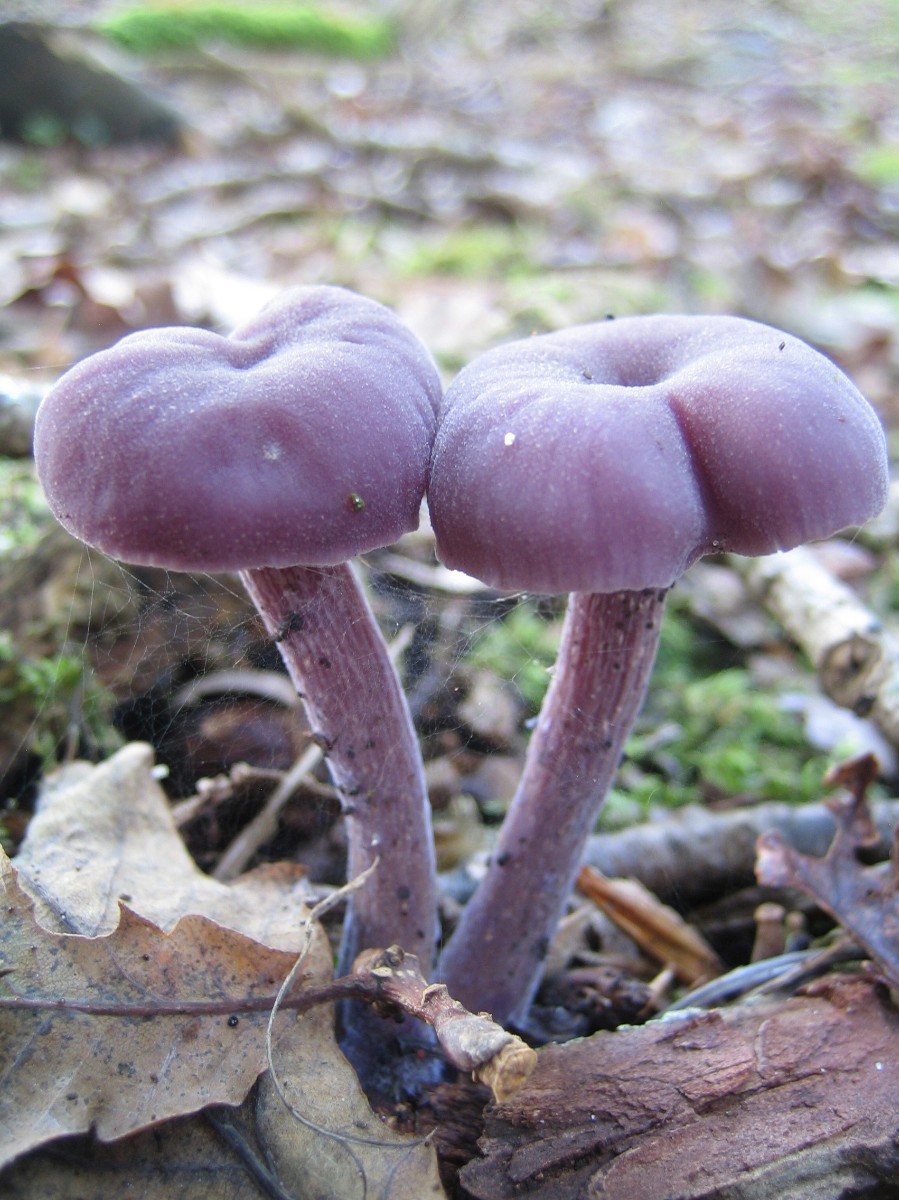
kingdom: Fungi
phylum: Basidiomycota
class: Agaricomycetes
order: Agaricales
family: Hydnangiaceae
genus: Laccaria
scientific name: Laccaria amethystina
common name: violet ametysthat
